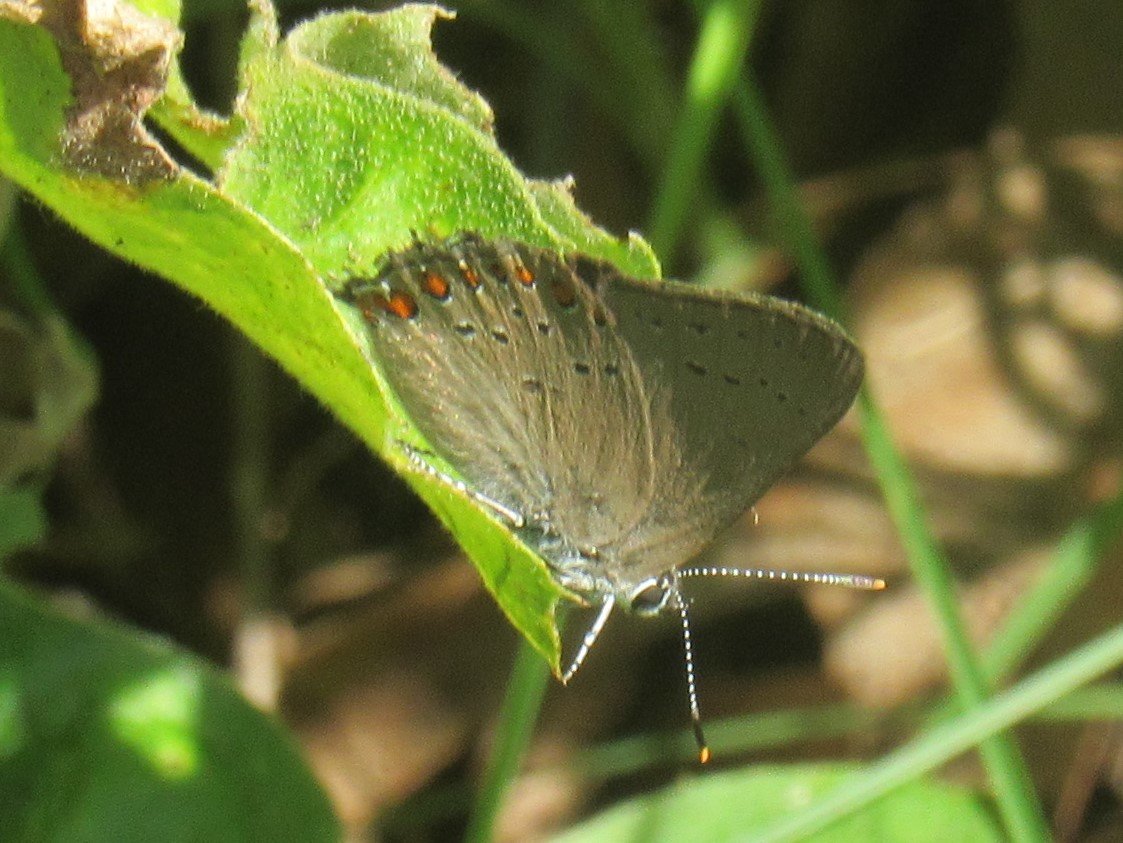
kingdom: Animalia
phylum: Arthropoda
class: Insecta
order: Lepidoptera
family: Lycaenidae
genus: Harkenclenus
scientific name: Harkenclenus titus
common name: Coral Hairstreak
